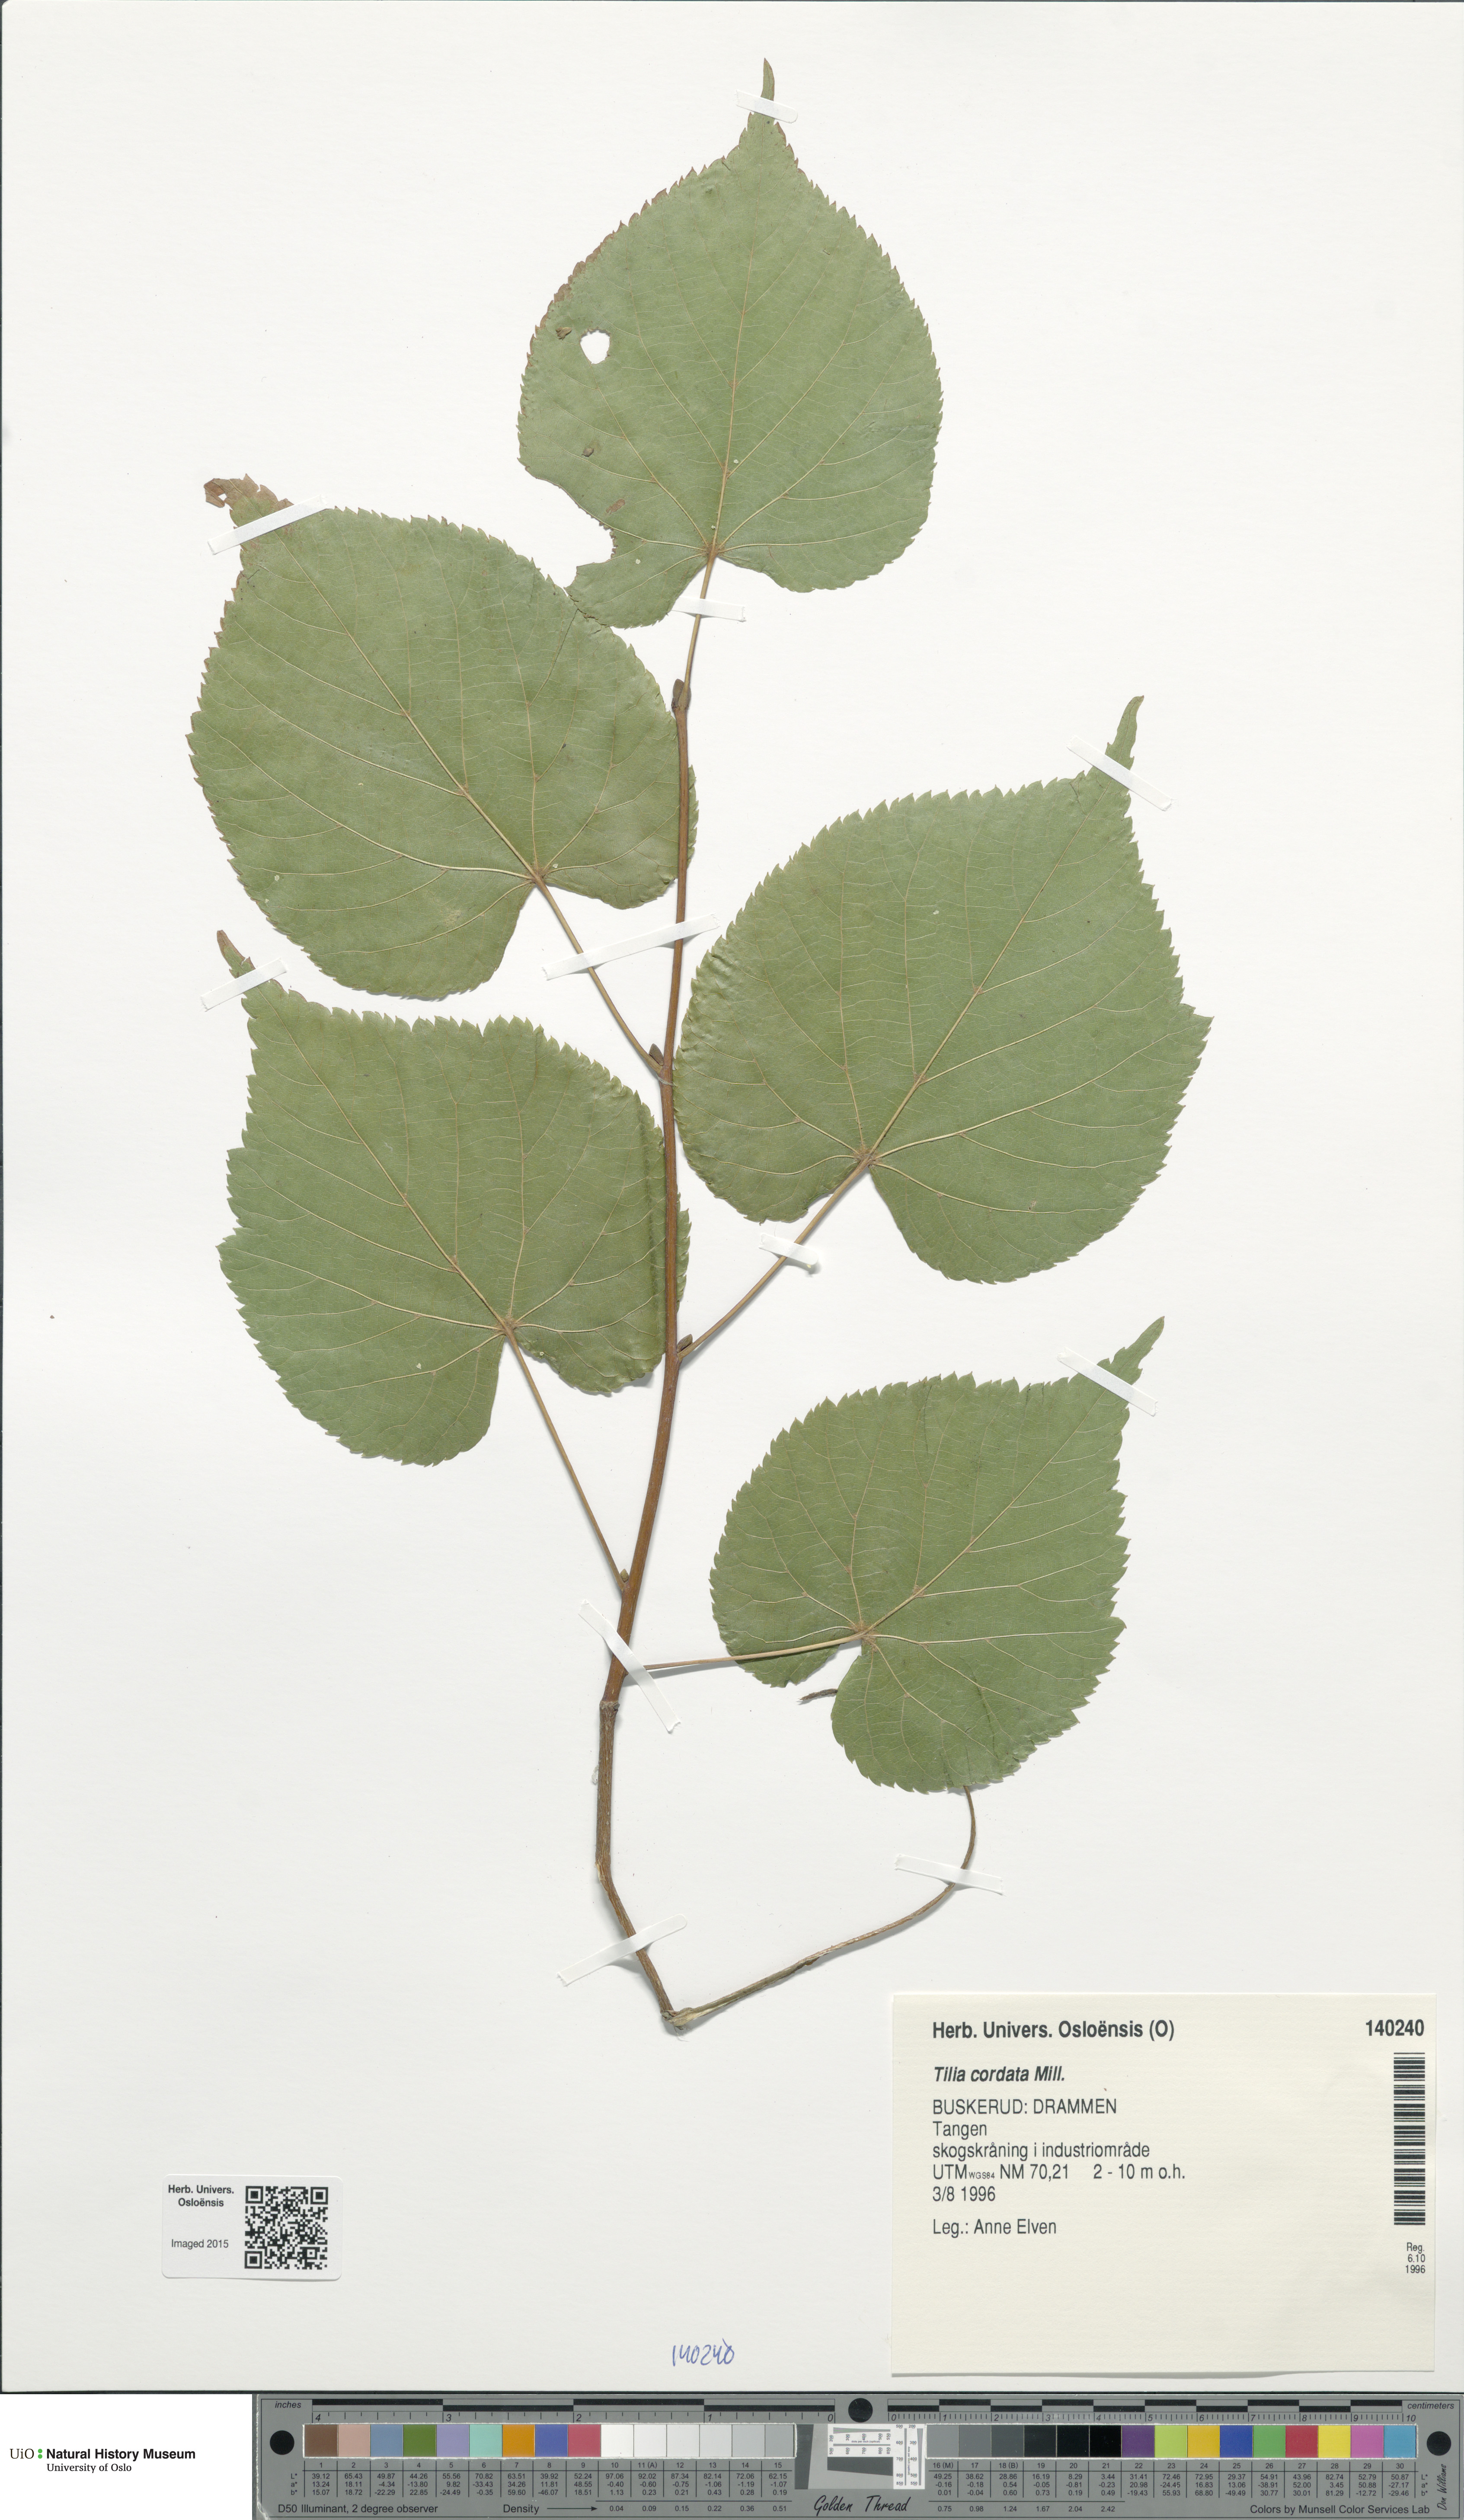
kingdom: Plantae
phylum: Tracheophyta
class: Magnoliopsida
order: Malvales
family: Malvaceae
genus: Tilia
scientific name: Tilia cordata
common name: Small-leaved lime
